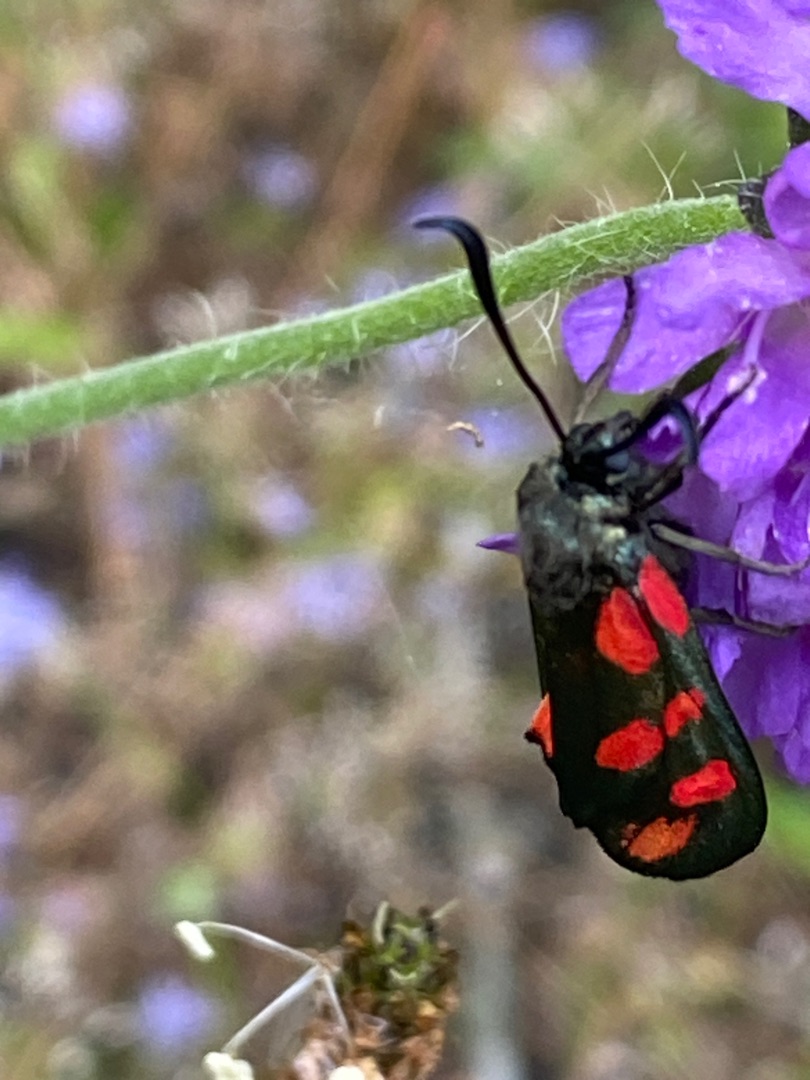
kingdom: Animalia
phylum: Arthropoda
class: Insecta
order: Lepidoptera
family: Zygaenidae
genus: Zygaena
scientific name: Zygaena filipendulae
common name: Seksplettet køllesværmer
